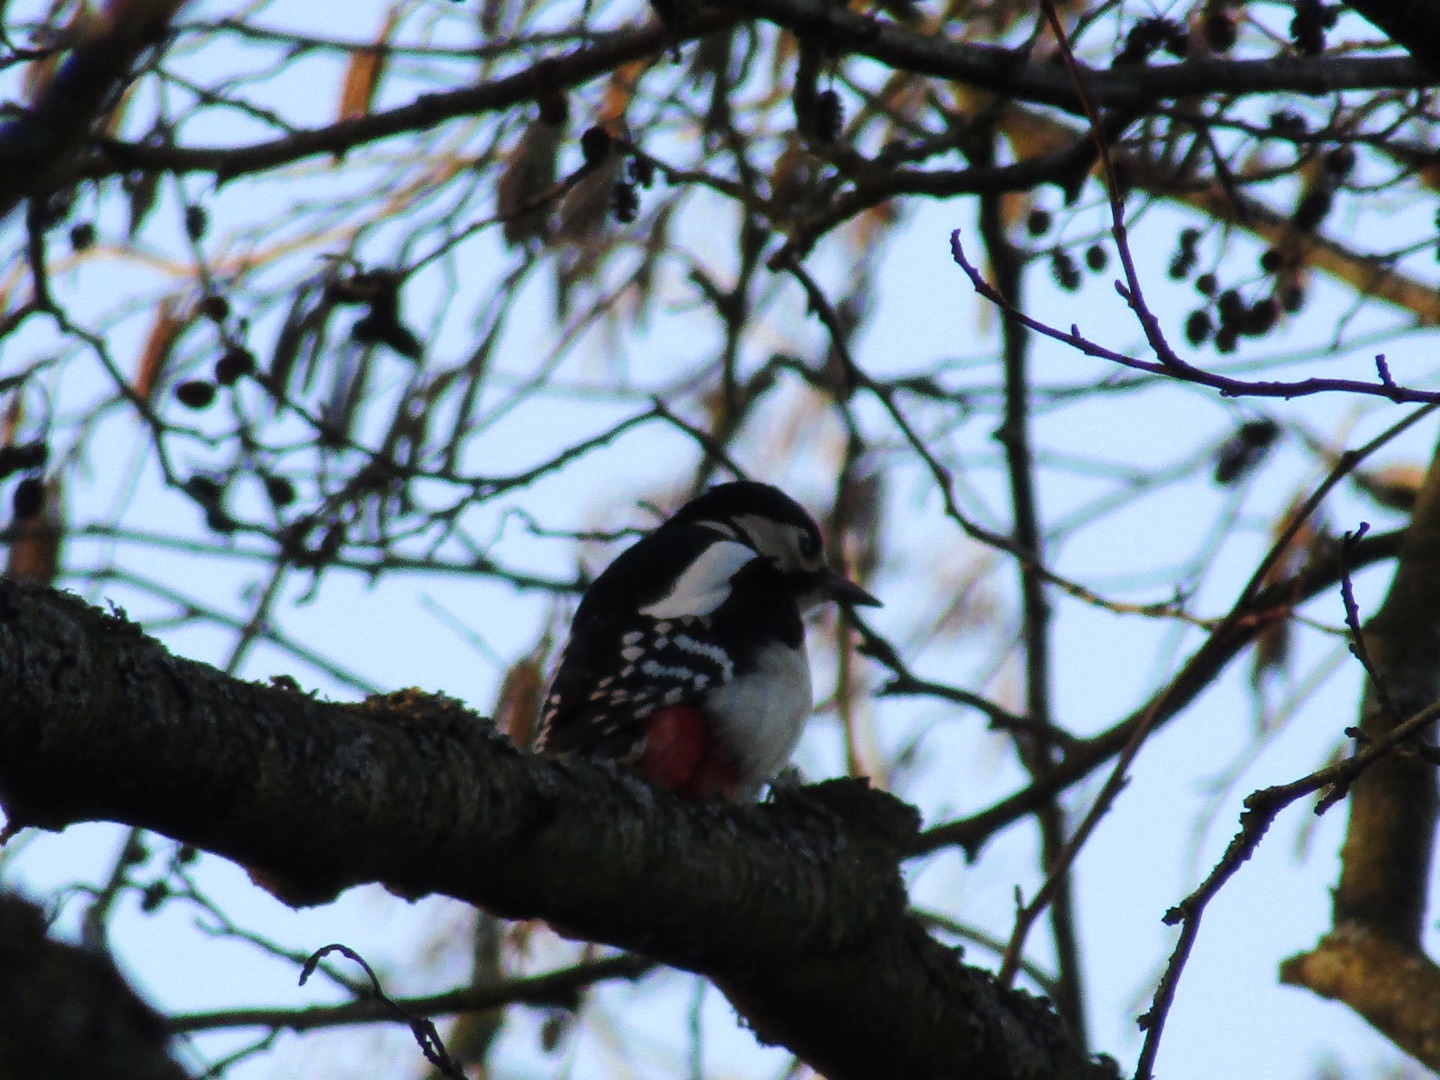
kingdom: Animalia
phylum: Chordata
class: Aves
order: Piciformes
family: Picidae
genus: Dendrocopos
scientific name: Dendrocopos major
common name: Stor flagspætte
